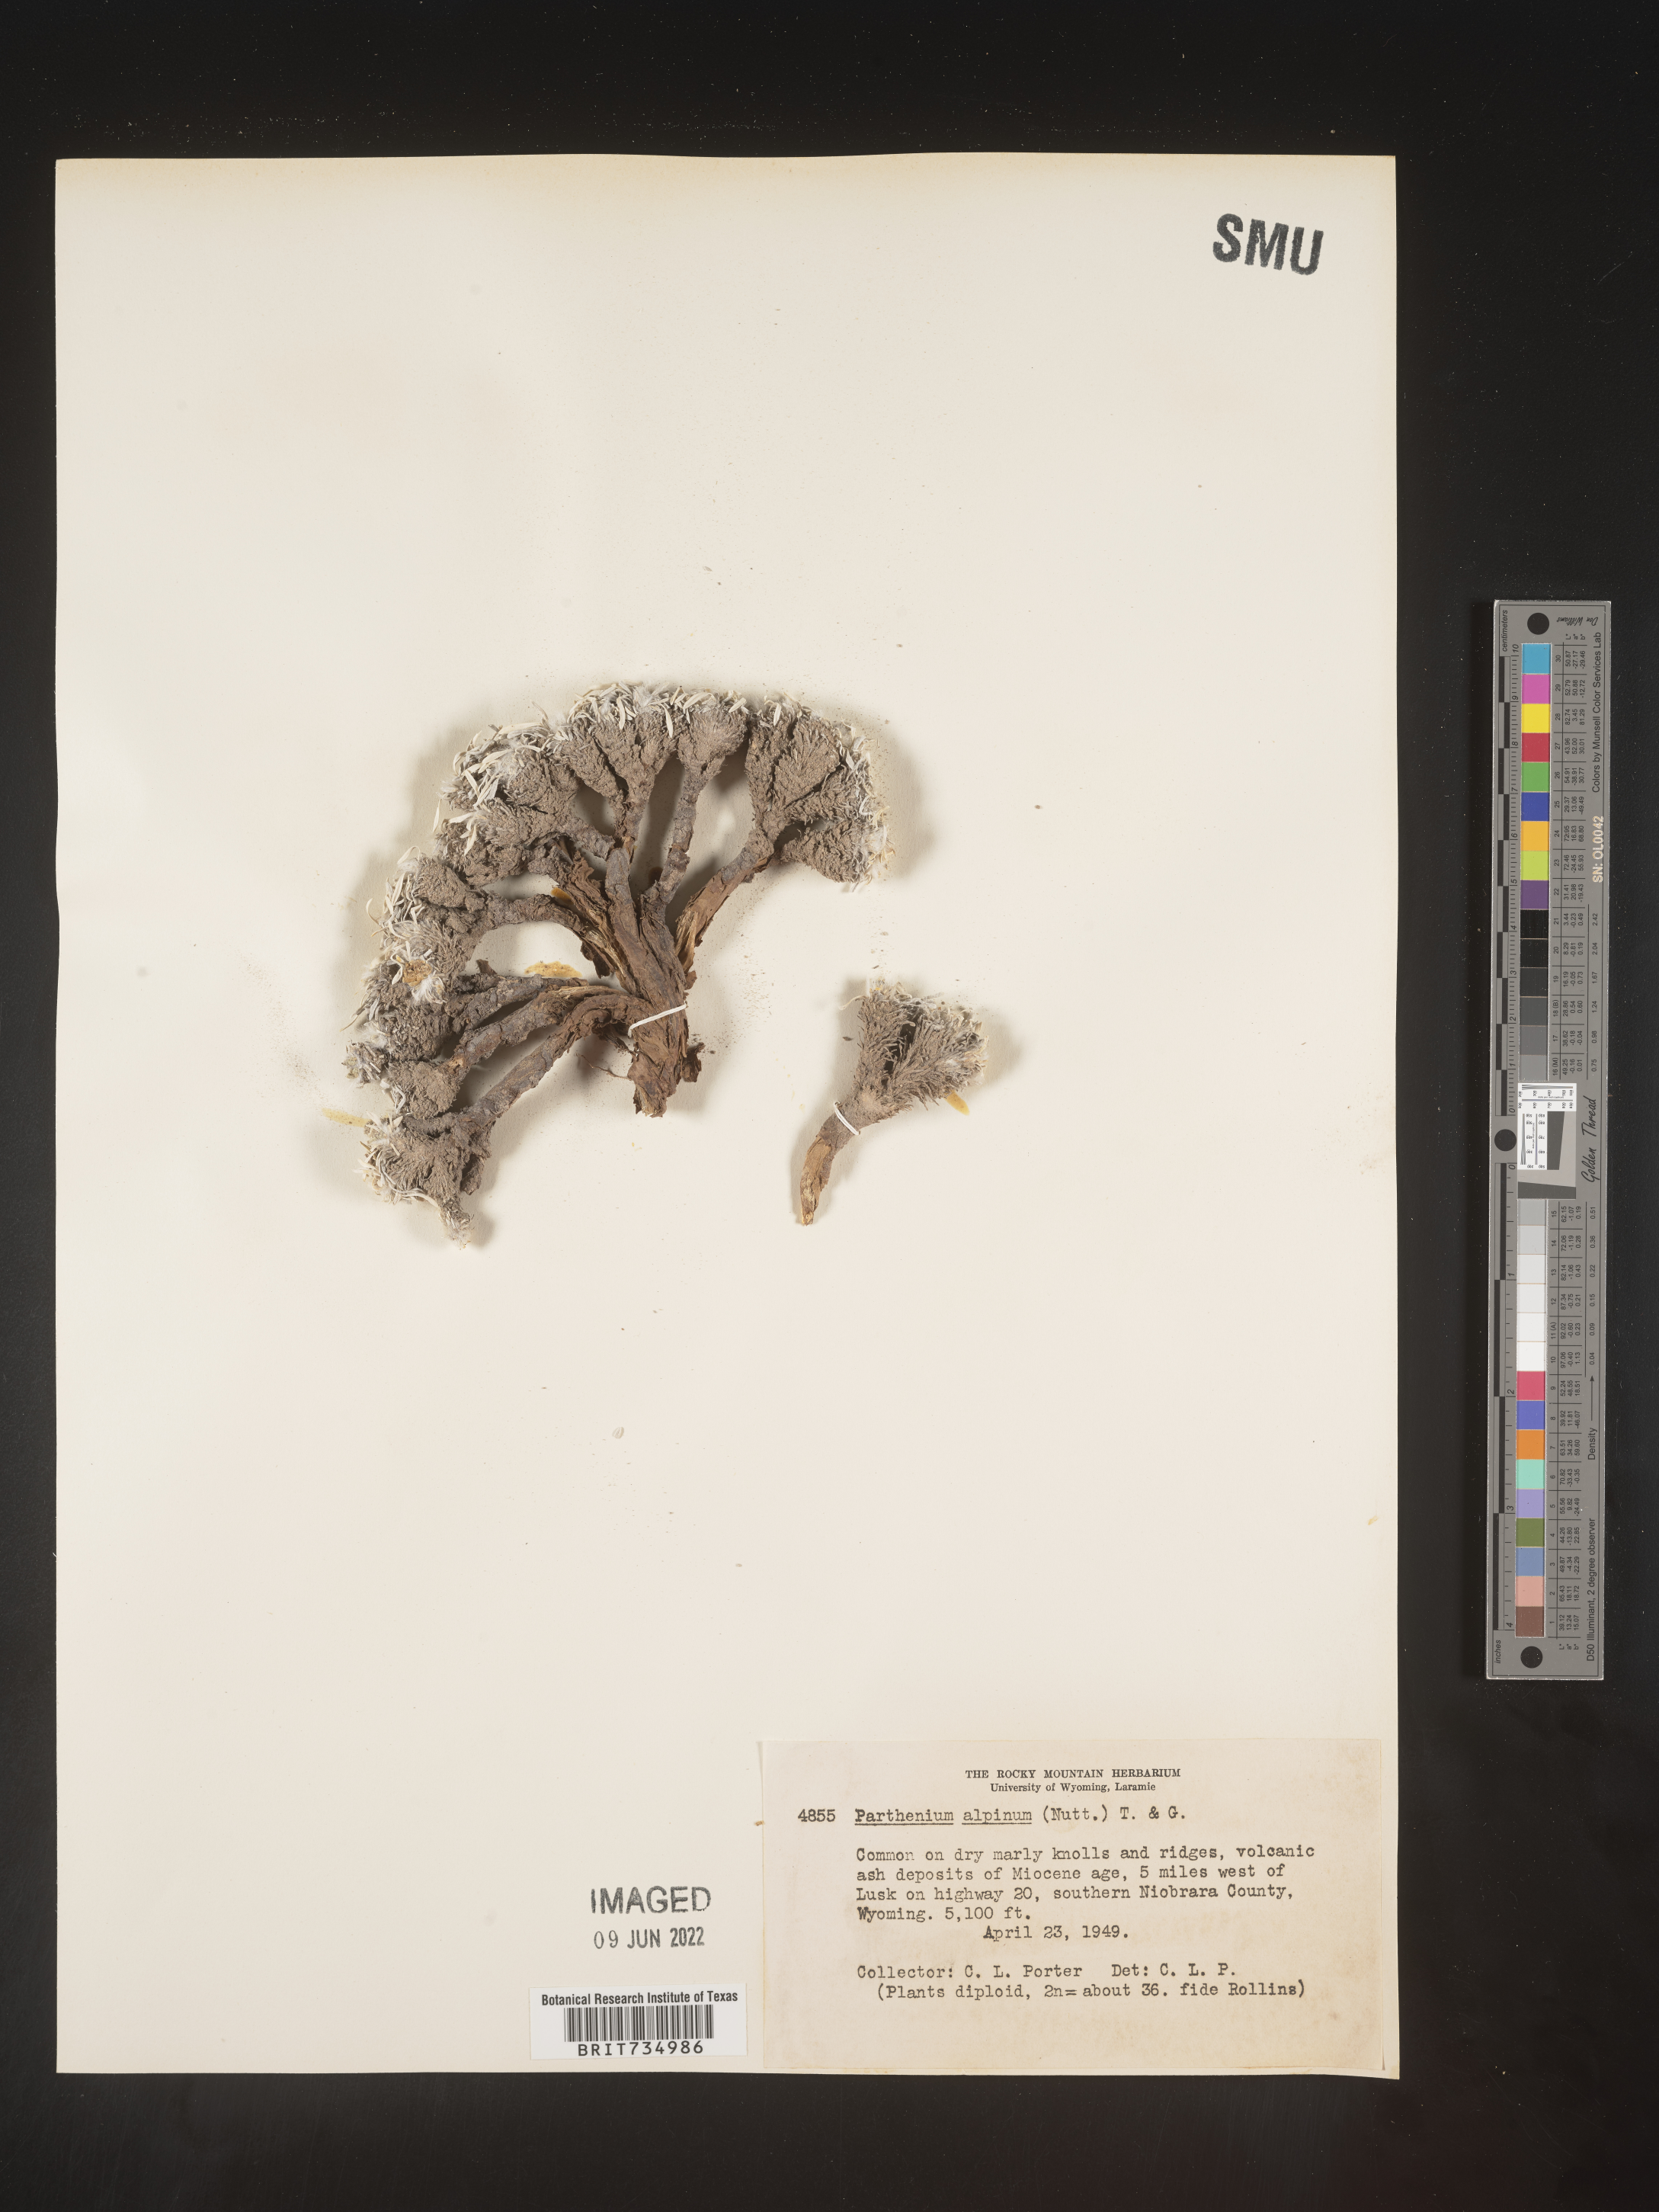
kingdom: Plantae
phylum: Tracheophyta
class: Magnoliopsida
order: Asterales
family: Asteraceae
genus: Parthenium
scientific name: Parthenium alpinum
